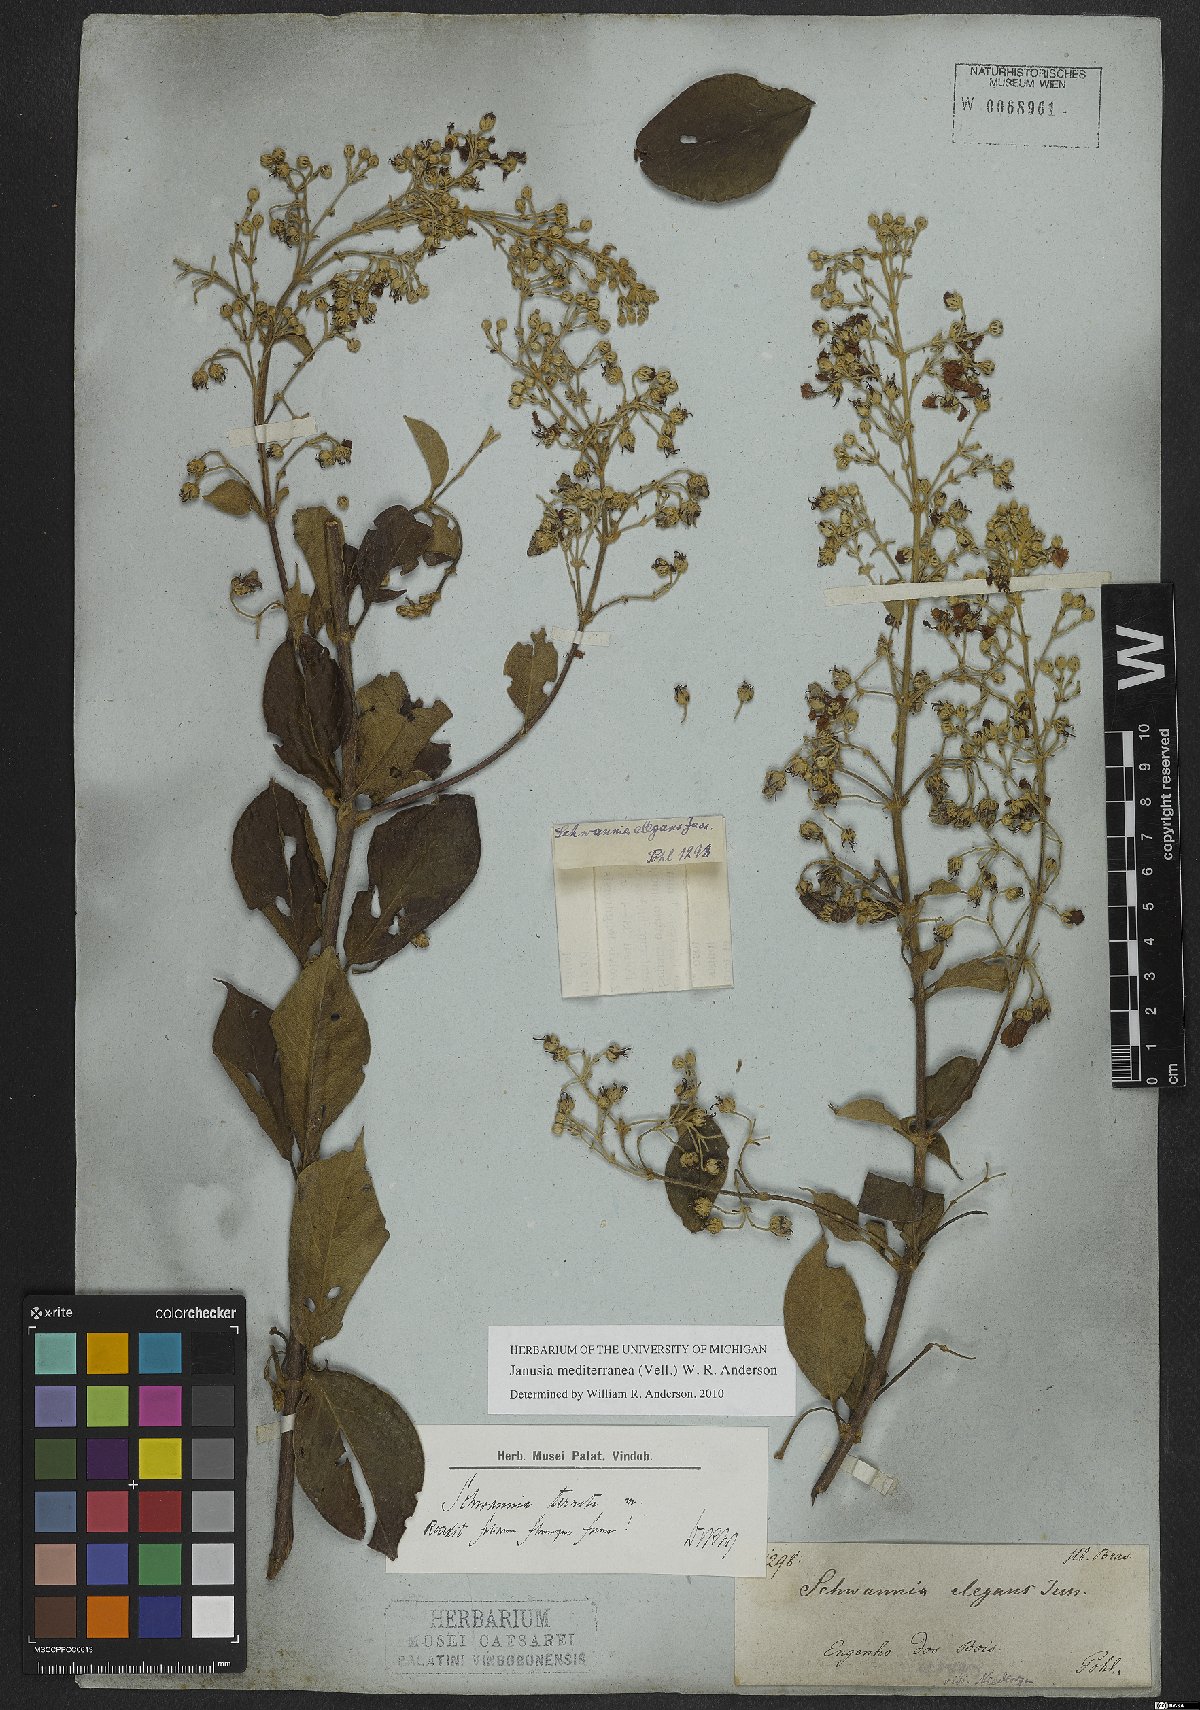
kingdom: Plantae
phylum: Tracheophyta
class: Magnoliopsida
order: Malpighiales
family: Malpighiaceae
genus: Janusia
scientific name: Janusia mediterranea
